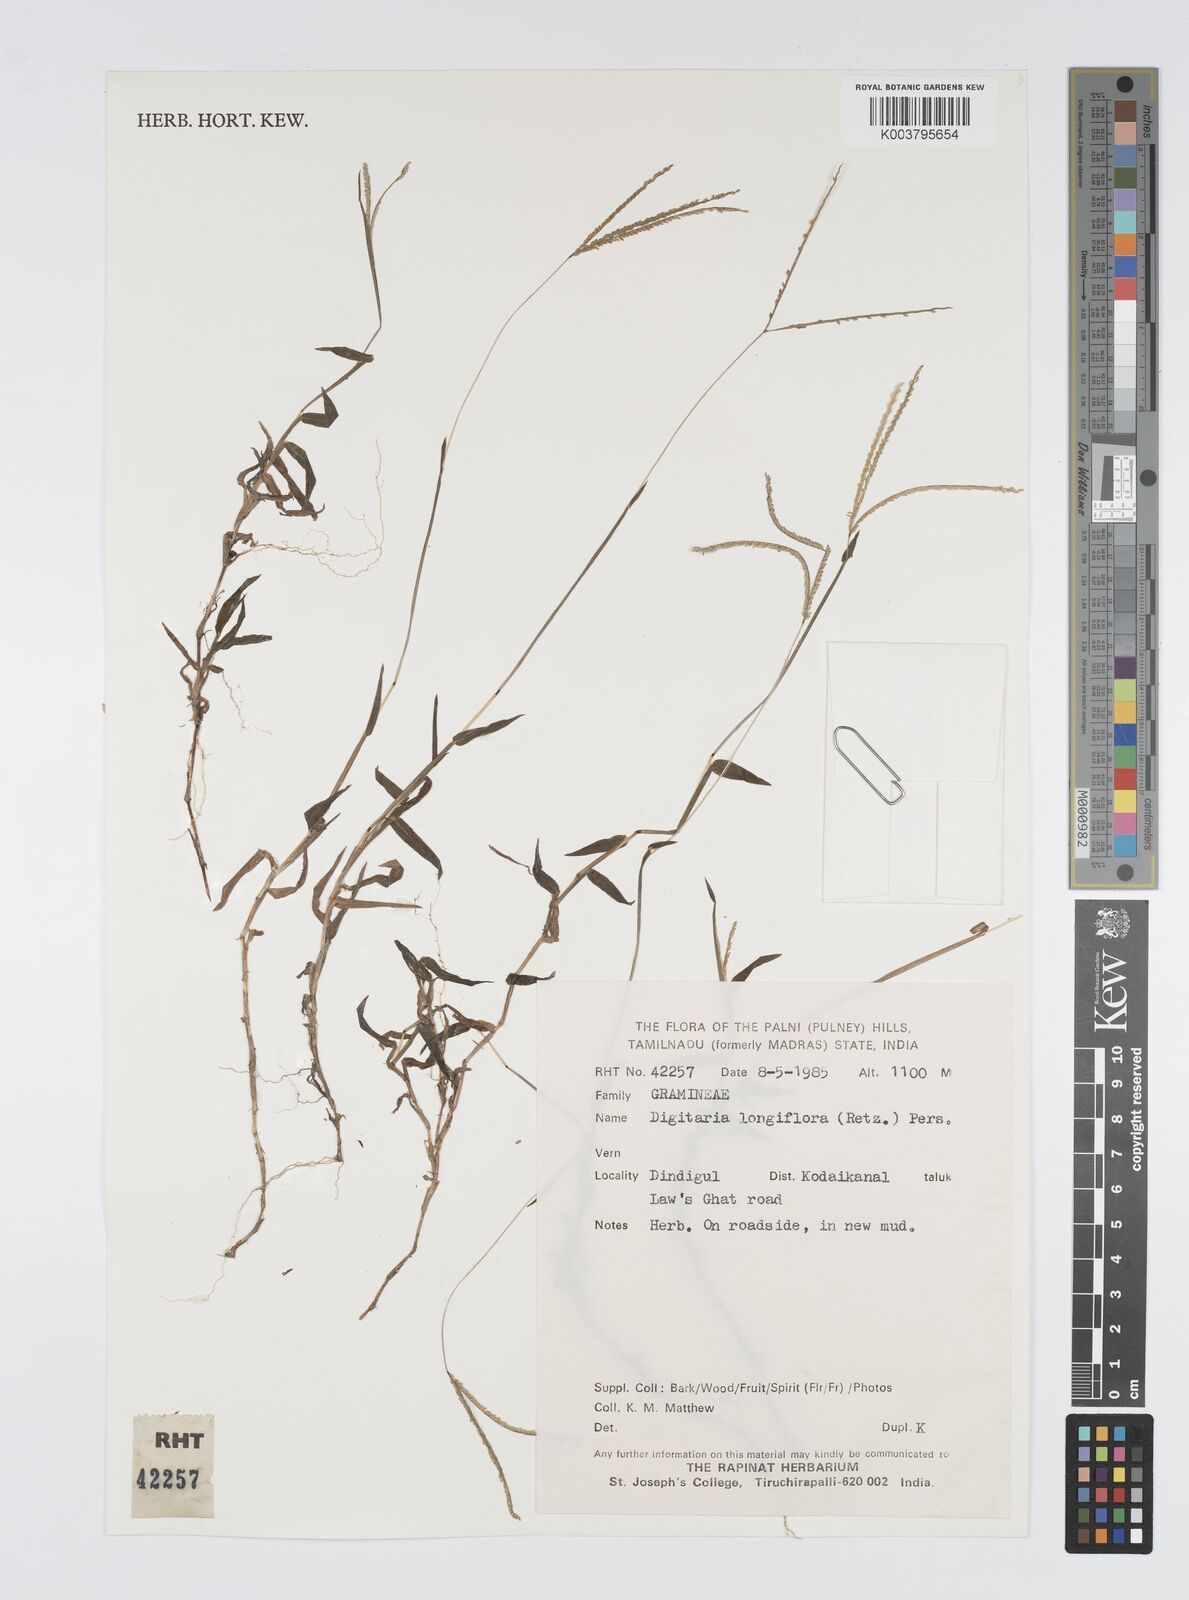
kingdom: Plantae
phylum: Tracheophyta
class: Liliopsida
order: Poales
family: Poaceae
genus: Digitaria
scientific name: Digitaria longiflora
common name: Wire crabgrass
